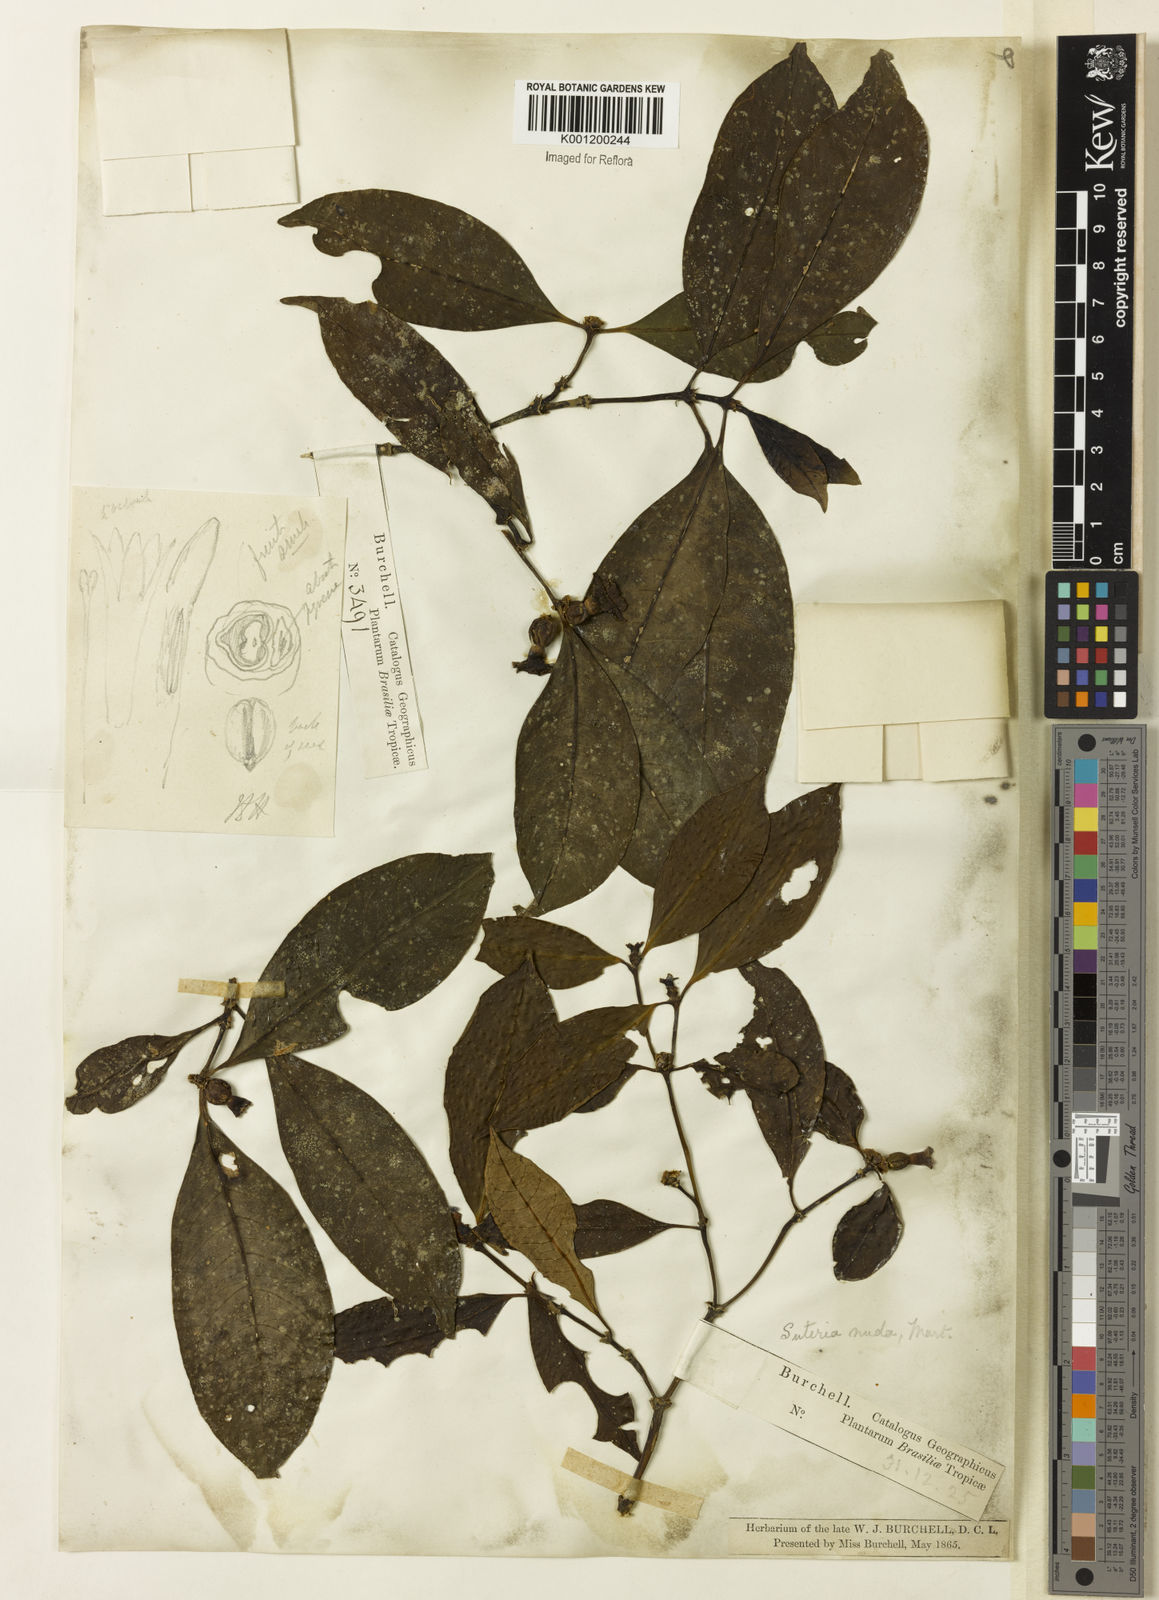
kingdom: Plantae
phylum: Tracheophyta
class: Magnoliopsida
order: Gentianales
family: Rubiaceae
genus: Psychotria
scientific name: Psychotria
